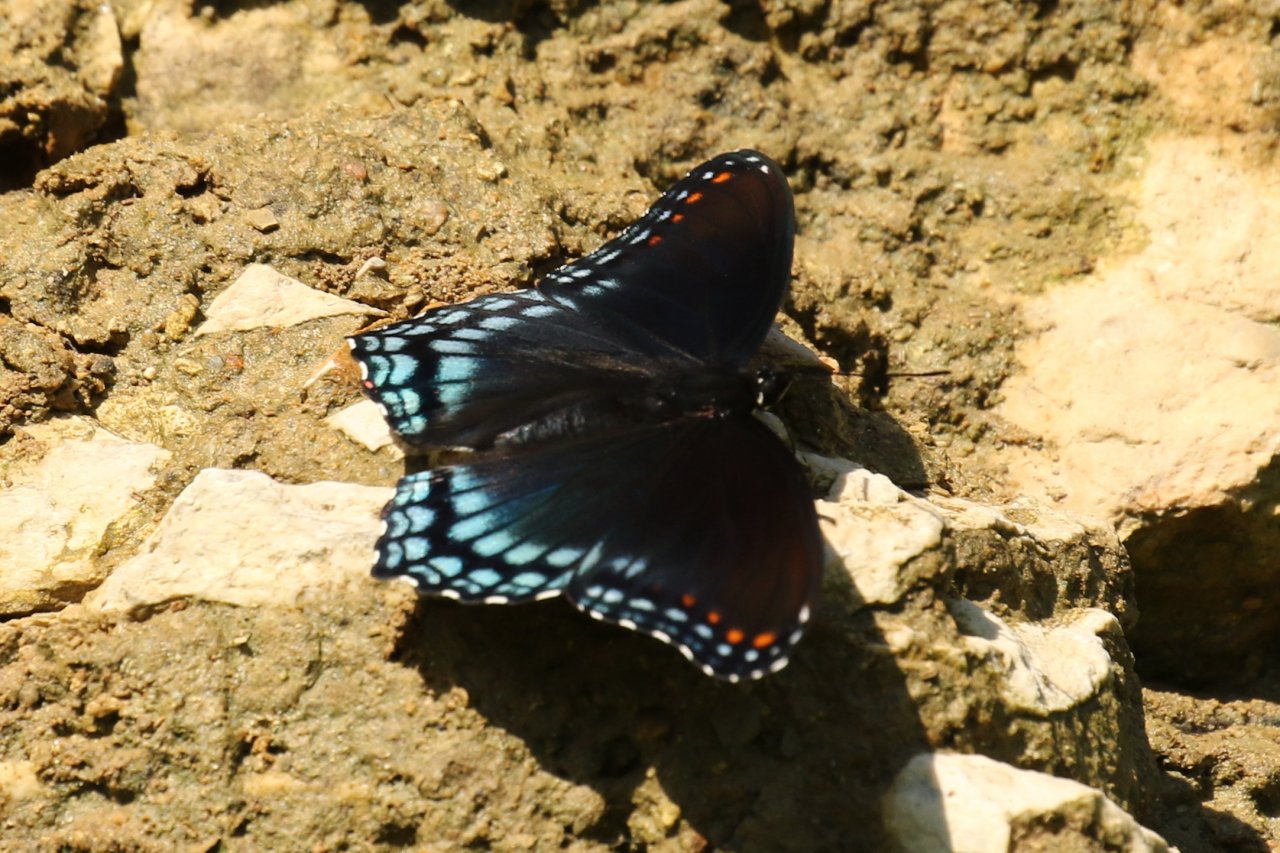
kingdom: Animalia
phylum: Arthropoda
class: Insecta
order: Lepidoptera
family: Nymphalidae
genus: Limenitis
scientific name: Limenitis arthemis
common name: Red-spotted Admiral
